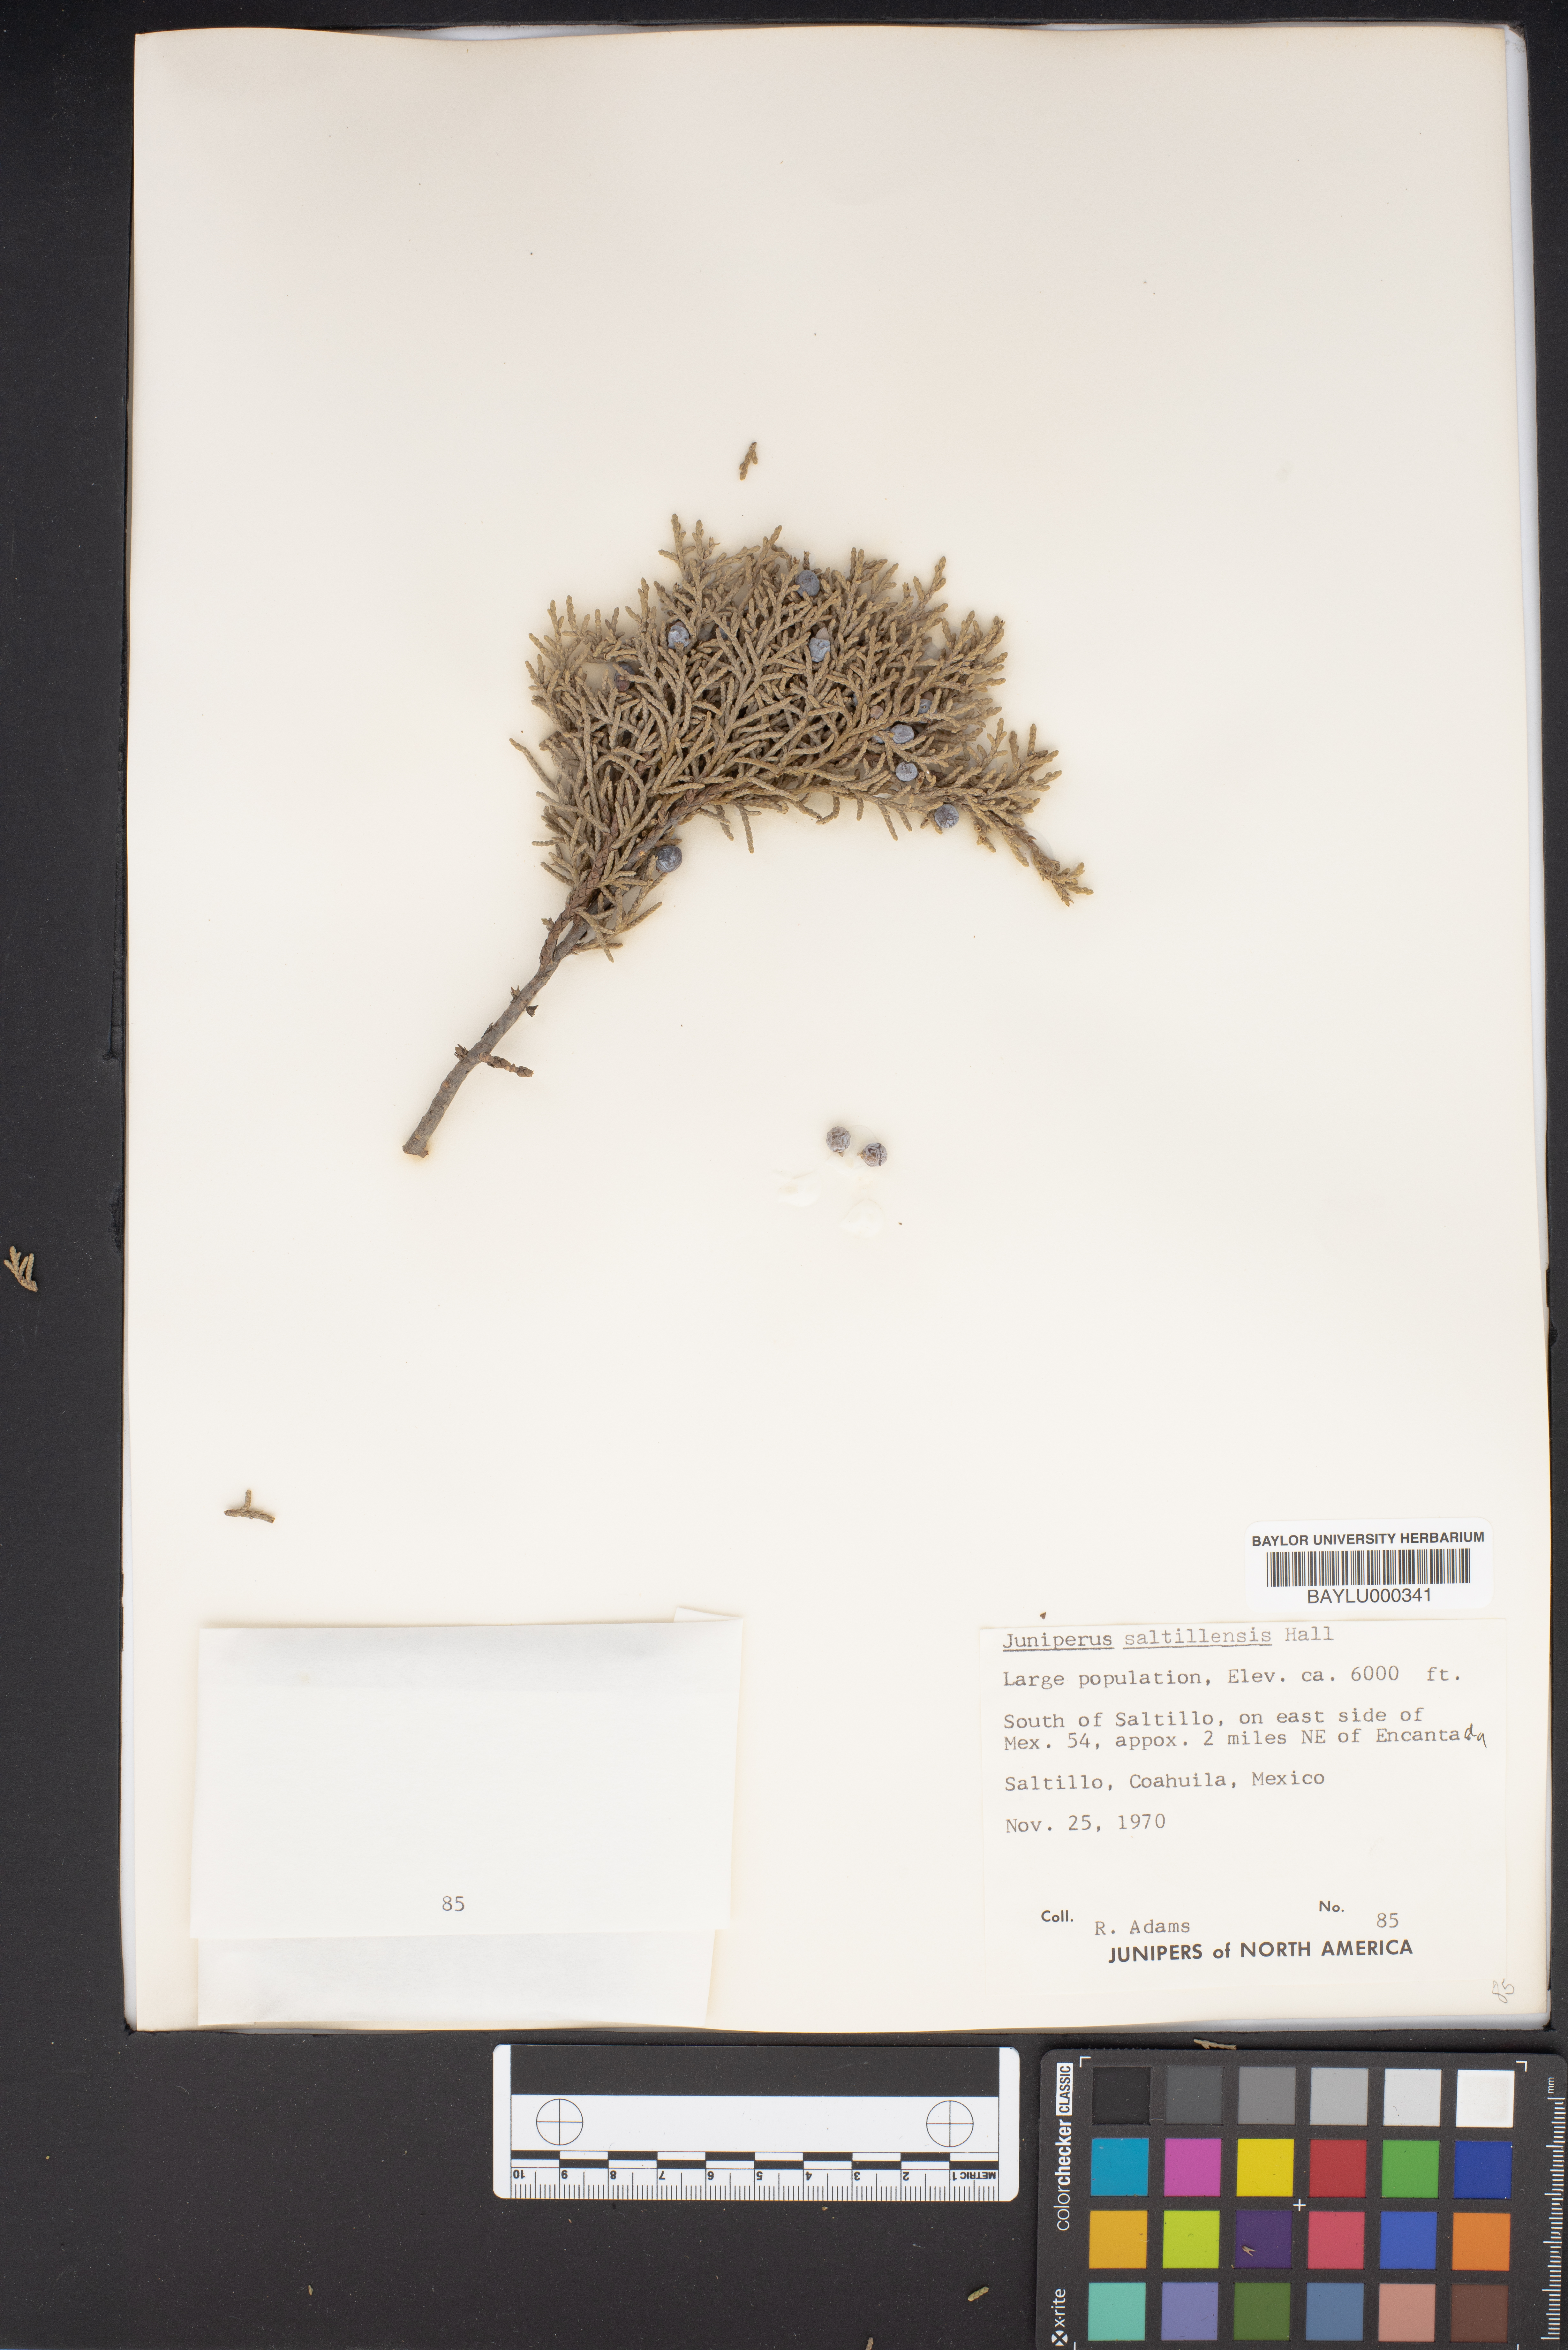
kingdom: Plantae
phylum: Tracheophyta
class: Pinopsida
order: Pinales
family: Cupressaceae
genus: Juniperus
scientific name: Juniperus saltillensis
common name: Saltillo juniper
